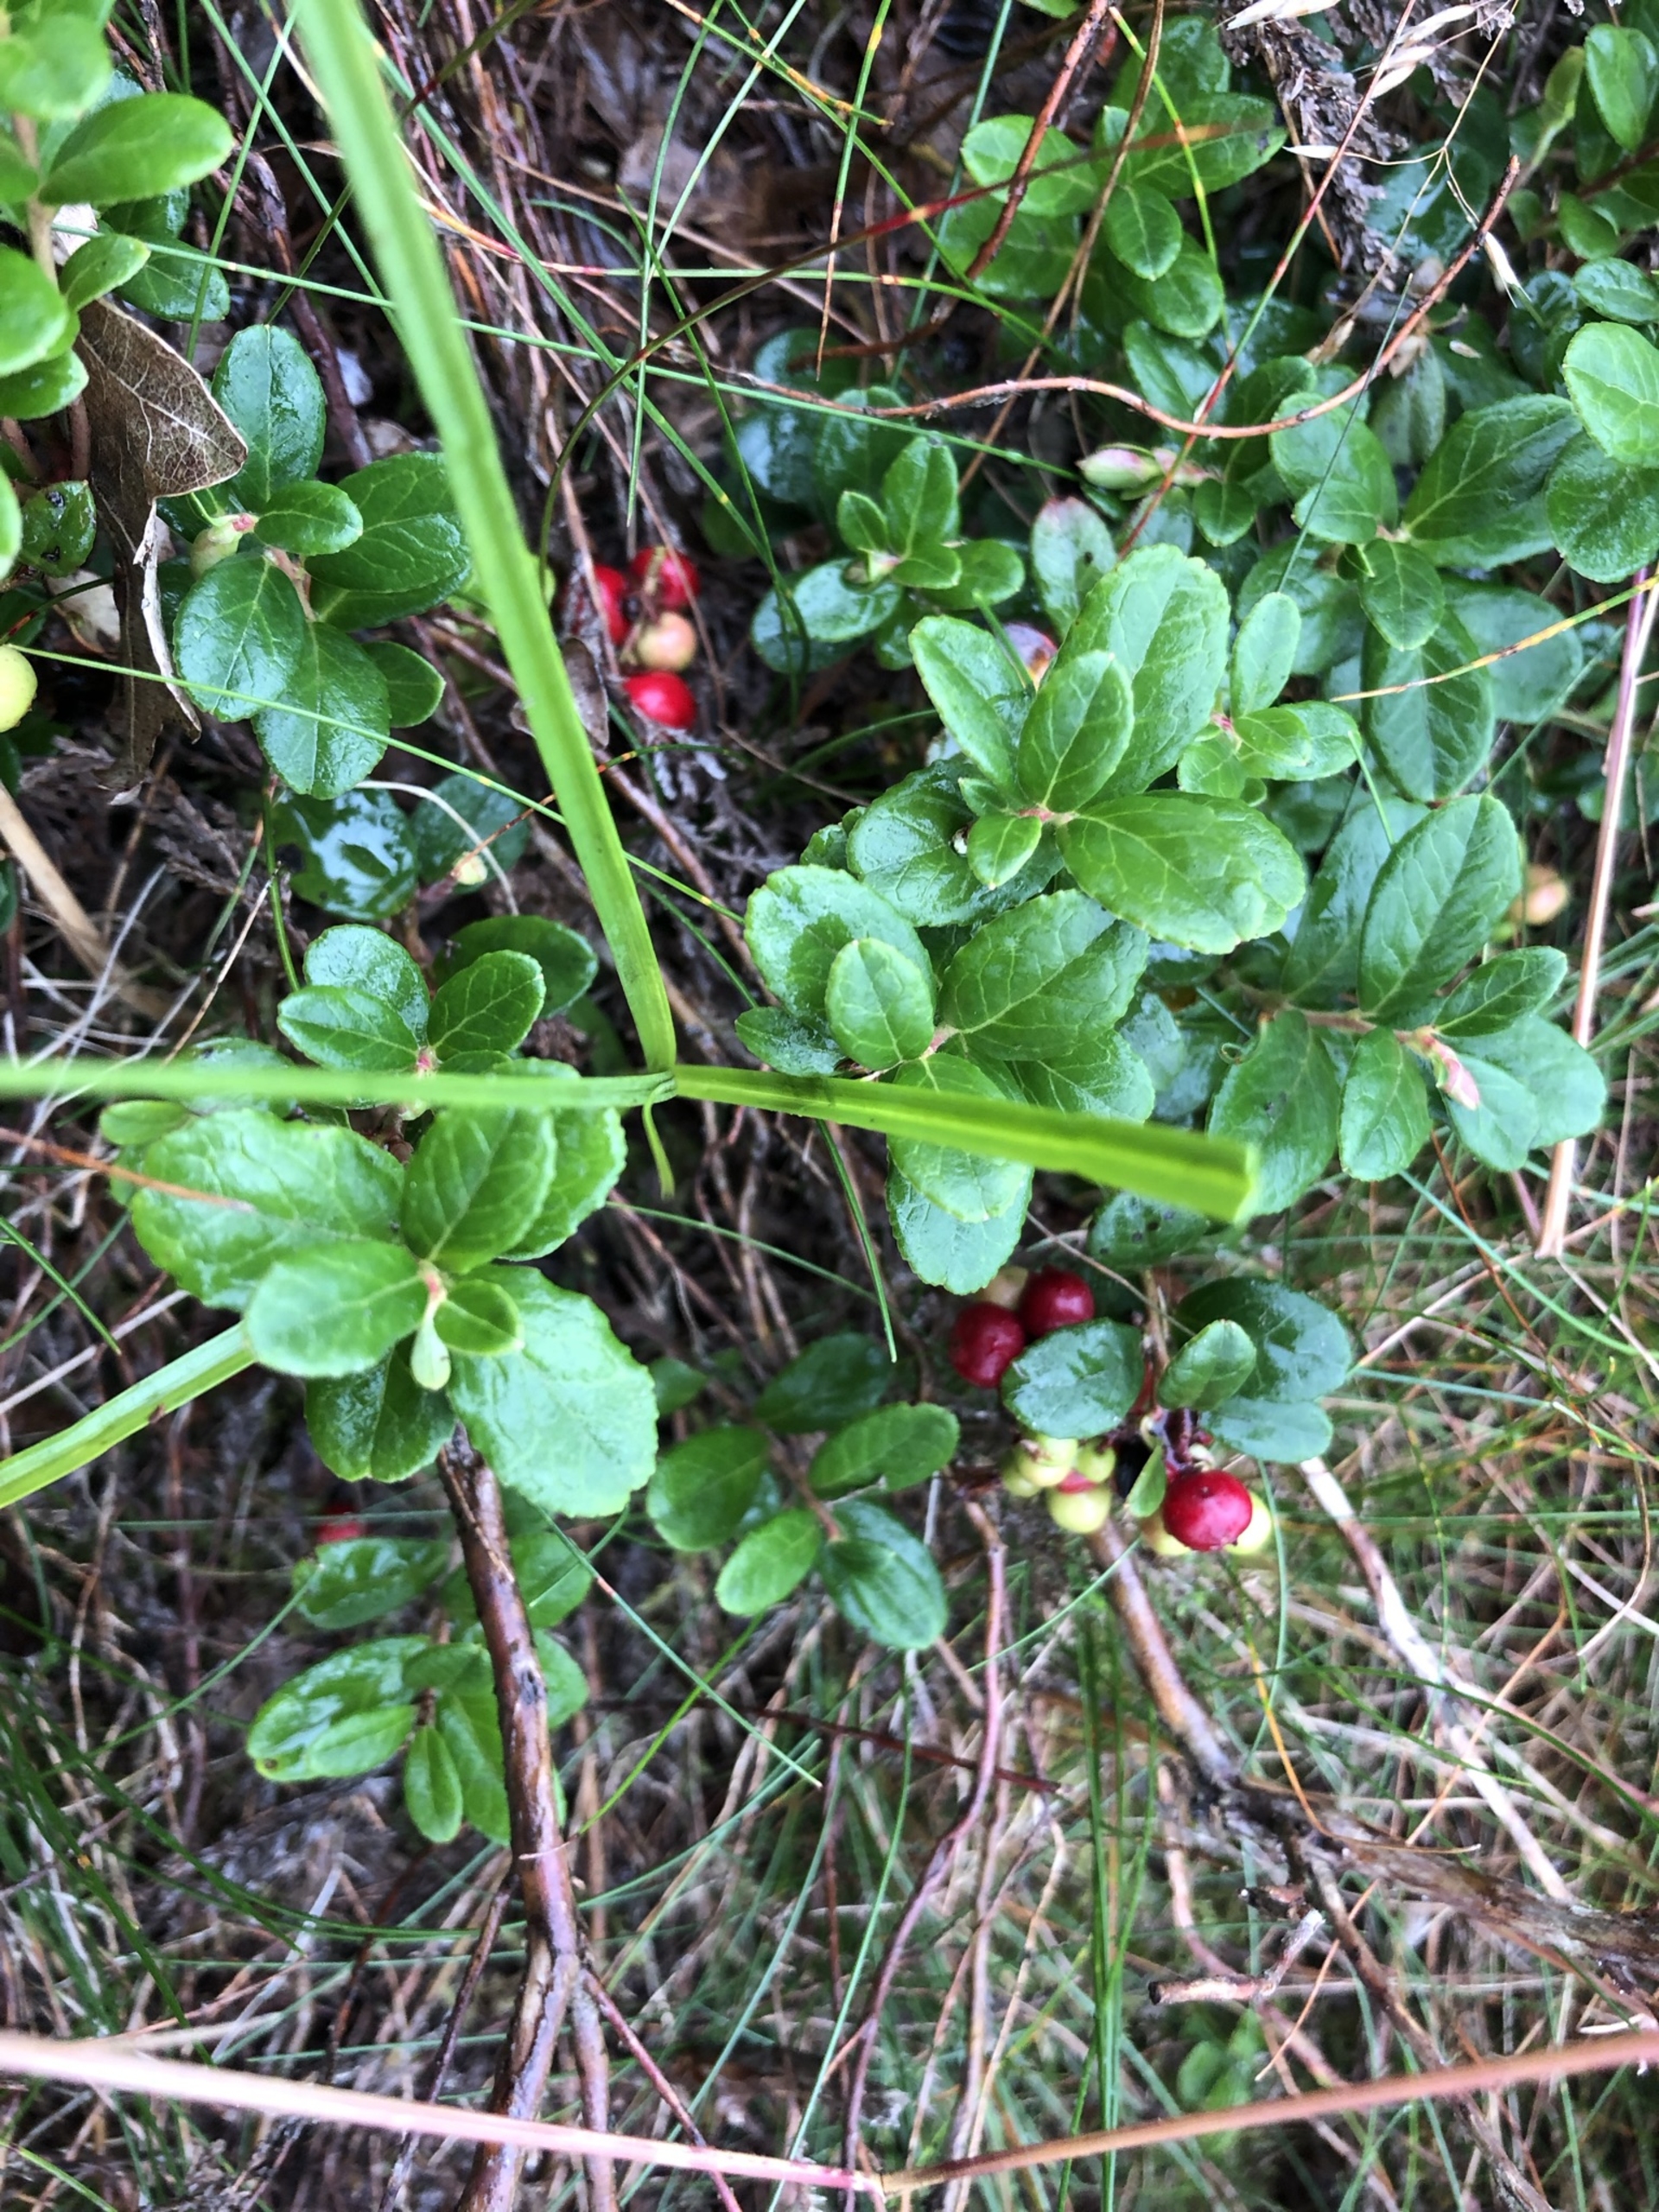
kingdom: Plantae
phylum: Tracheophyta
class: Magnoliopsida
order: Ericales
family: Ericaceae
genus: Vaccinium
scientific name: Vaccinium vitis-idaea
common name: Tyttebær
